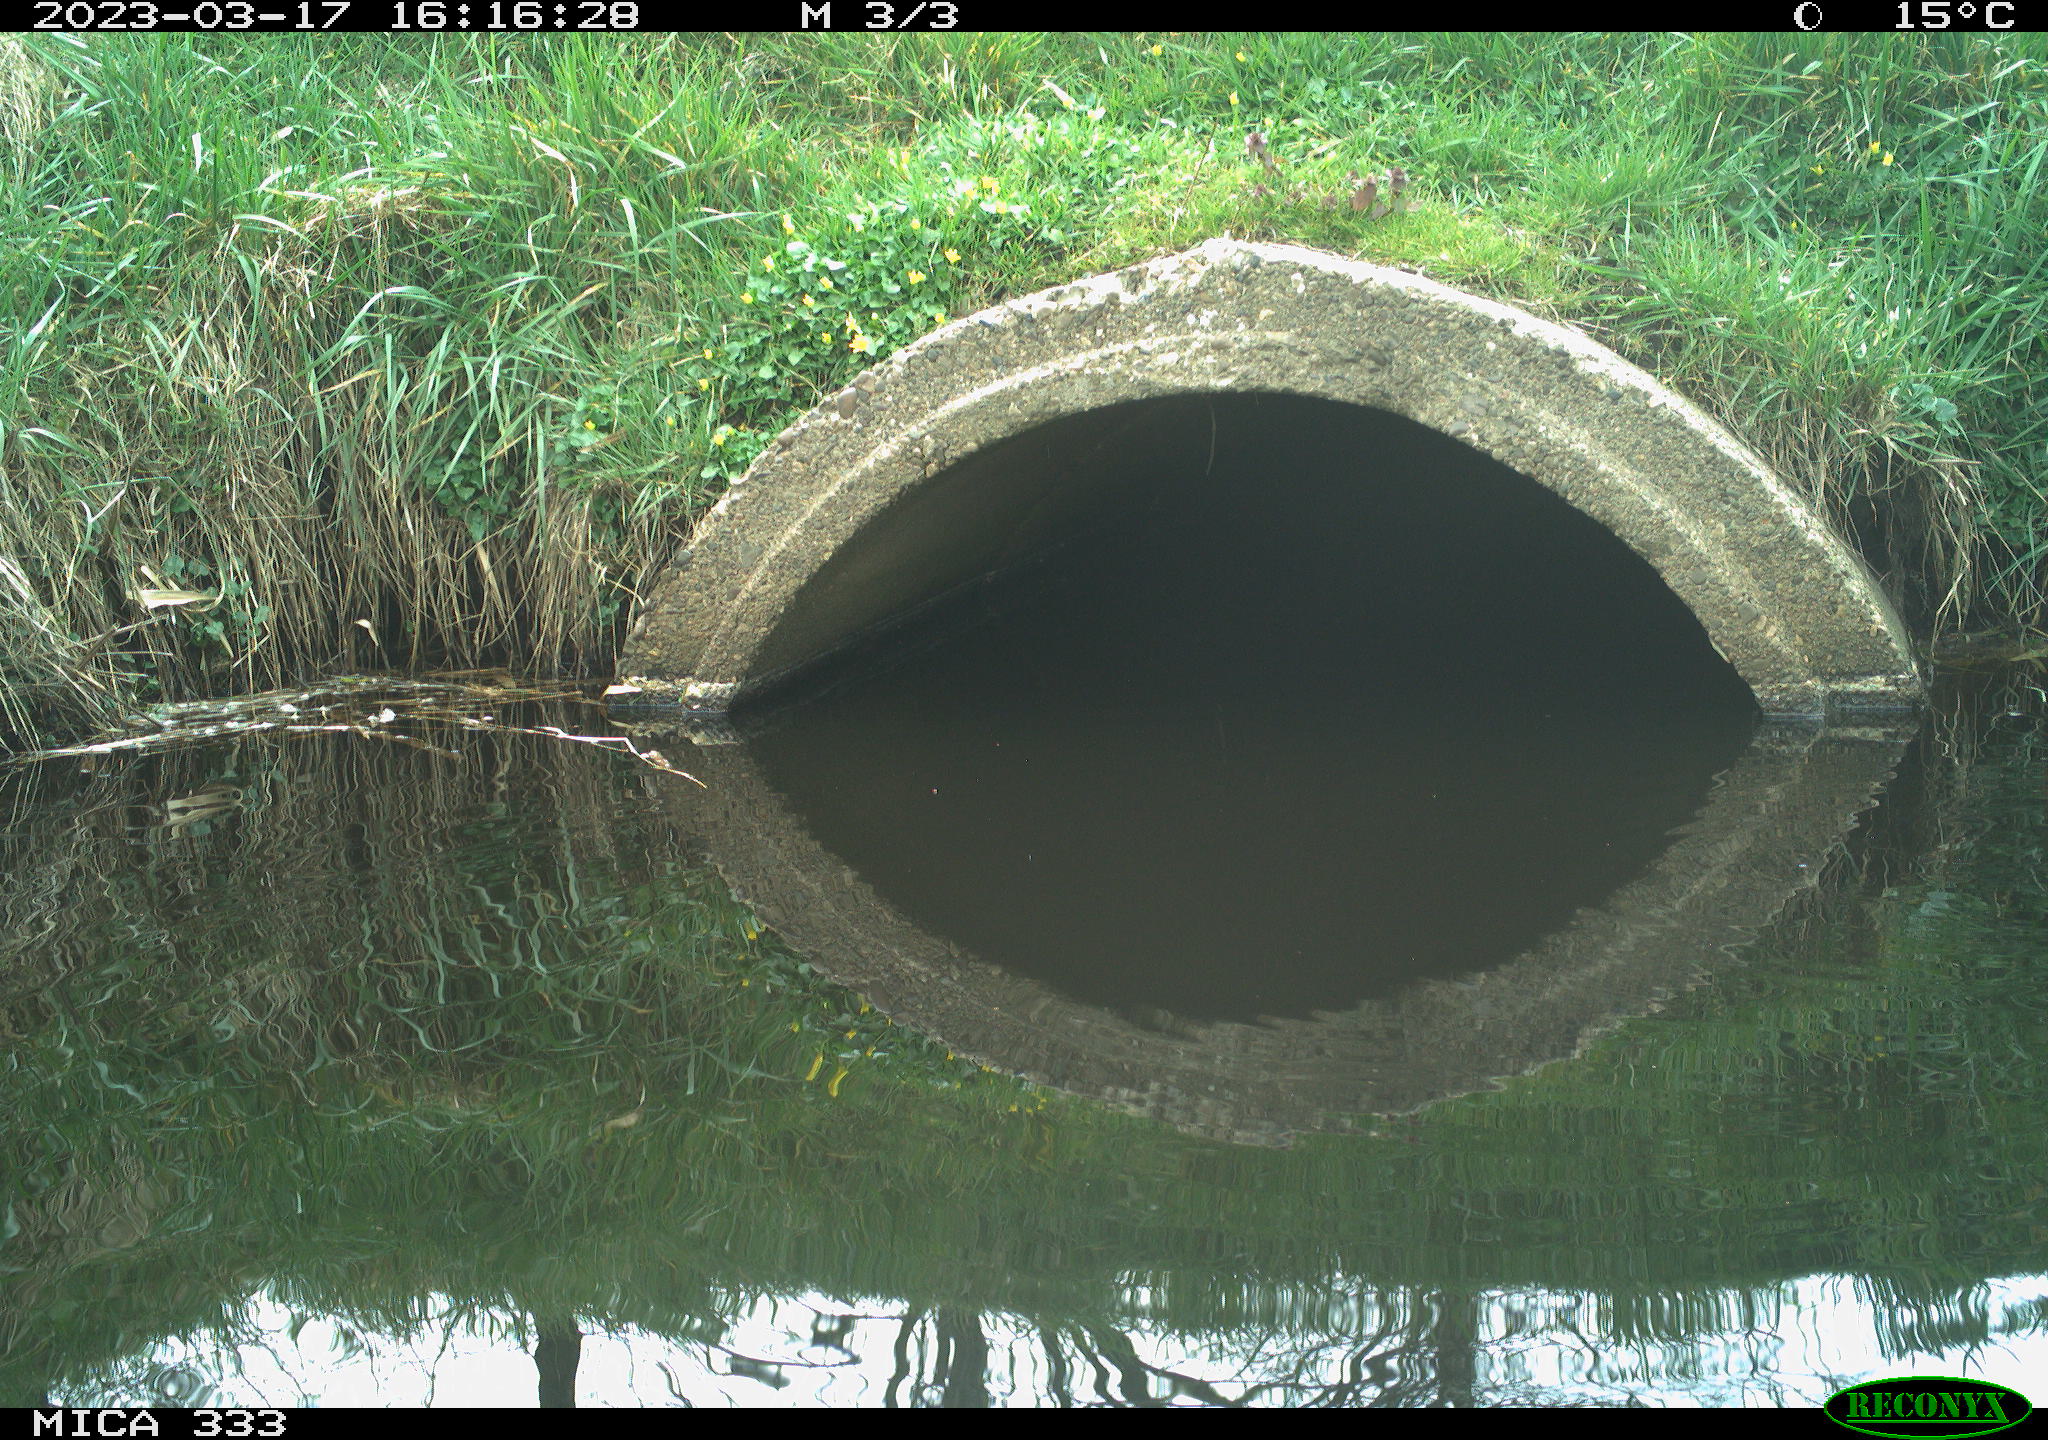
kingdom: Animalia
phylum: Chordata
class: Aves
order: Gruiformes
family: Rallidae
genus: Gallinula
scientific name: Gallinula chloropus
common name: Common moorhen
